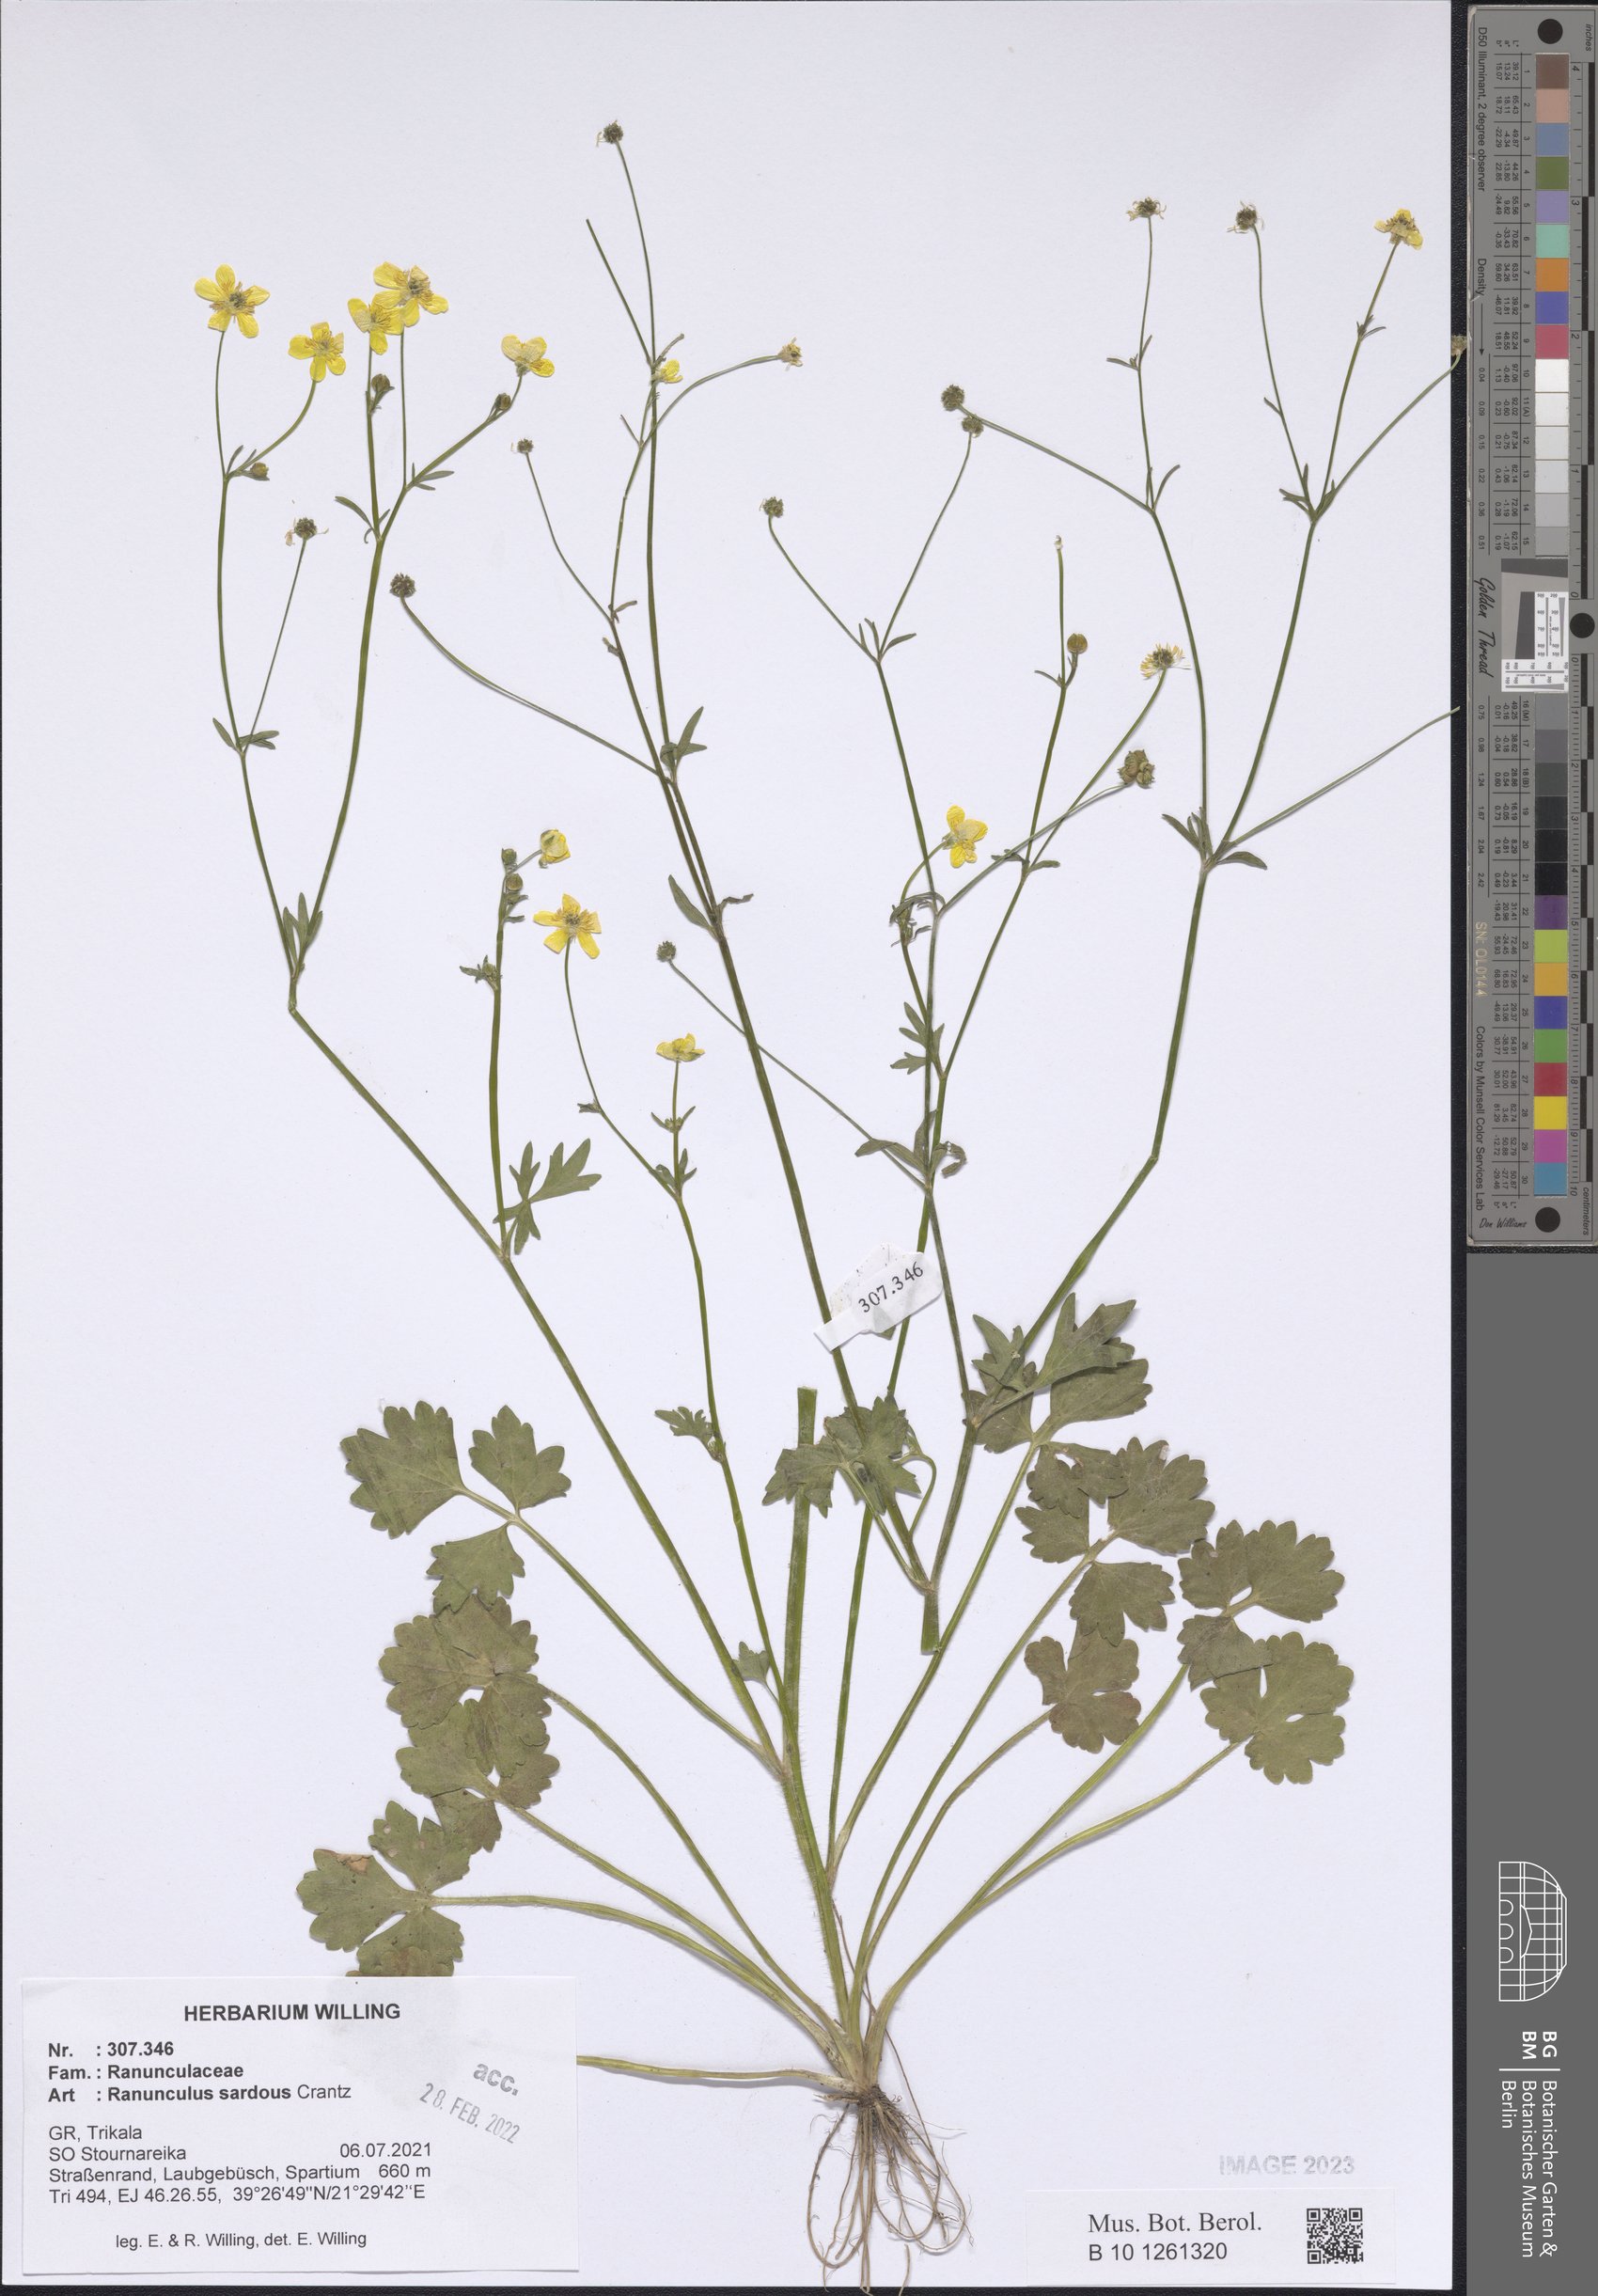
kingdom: Plantae
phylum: Tracheophyta
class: Magnoliopsida
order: Ranunculales
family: Ranunculaceae
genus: Ranunculus
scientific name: Ranunculus sardous
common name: Hairy buttercup
